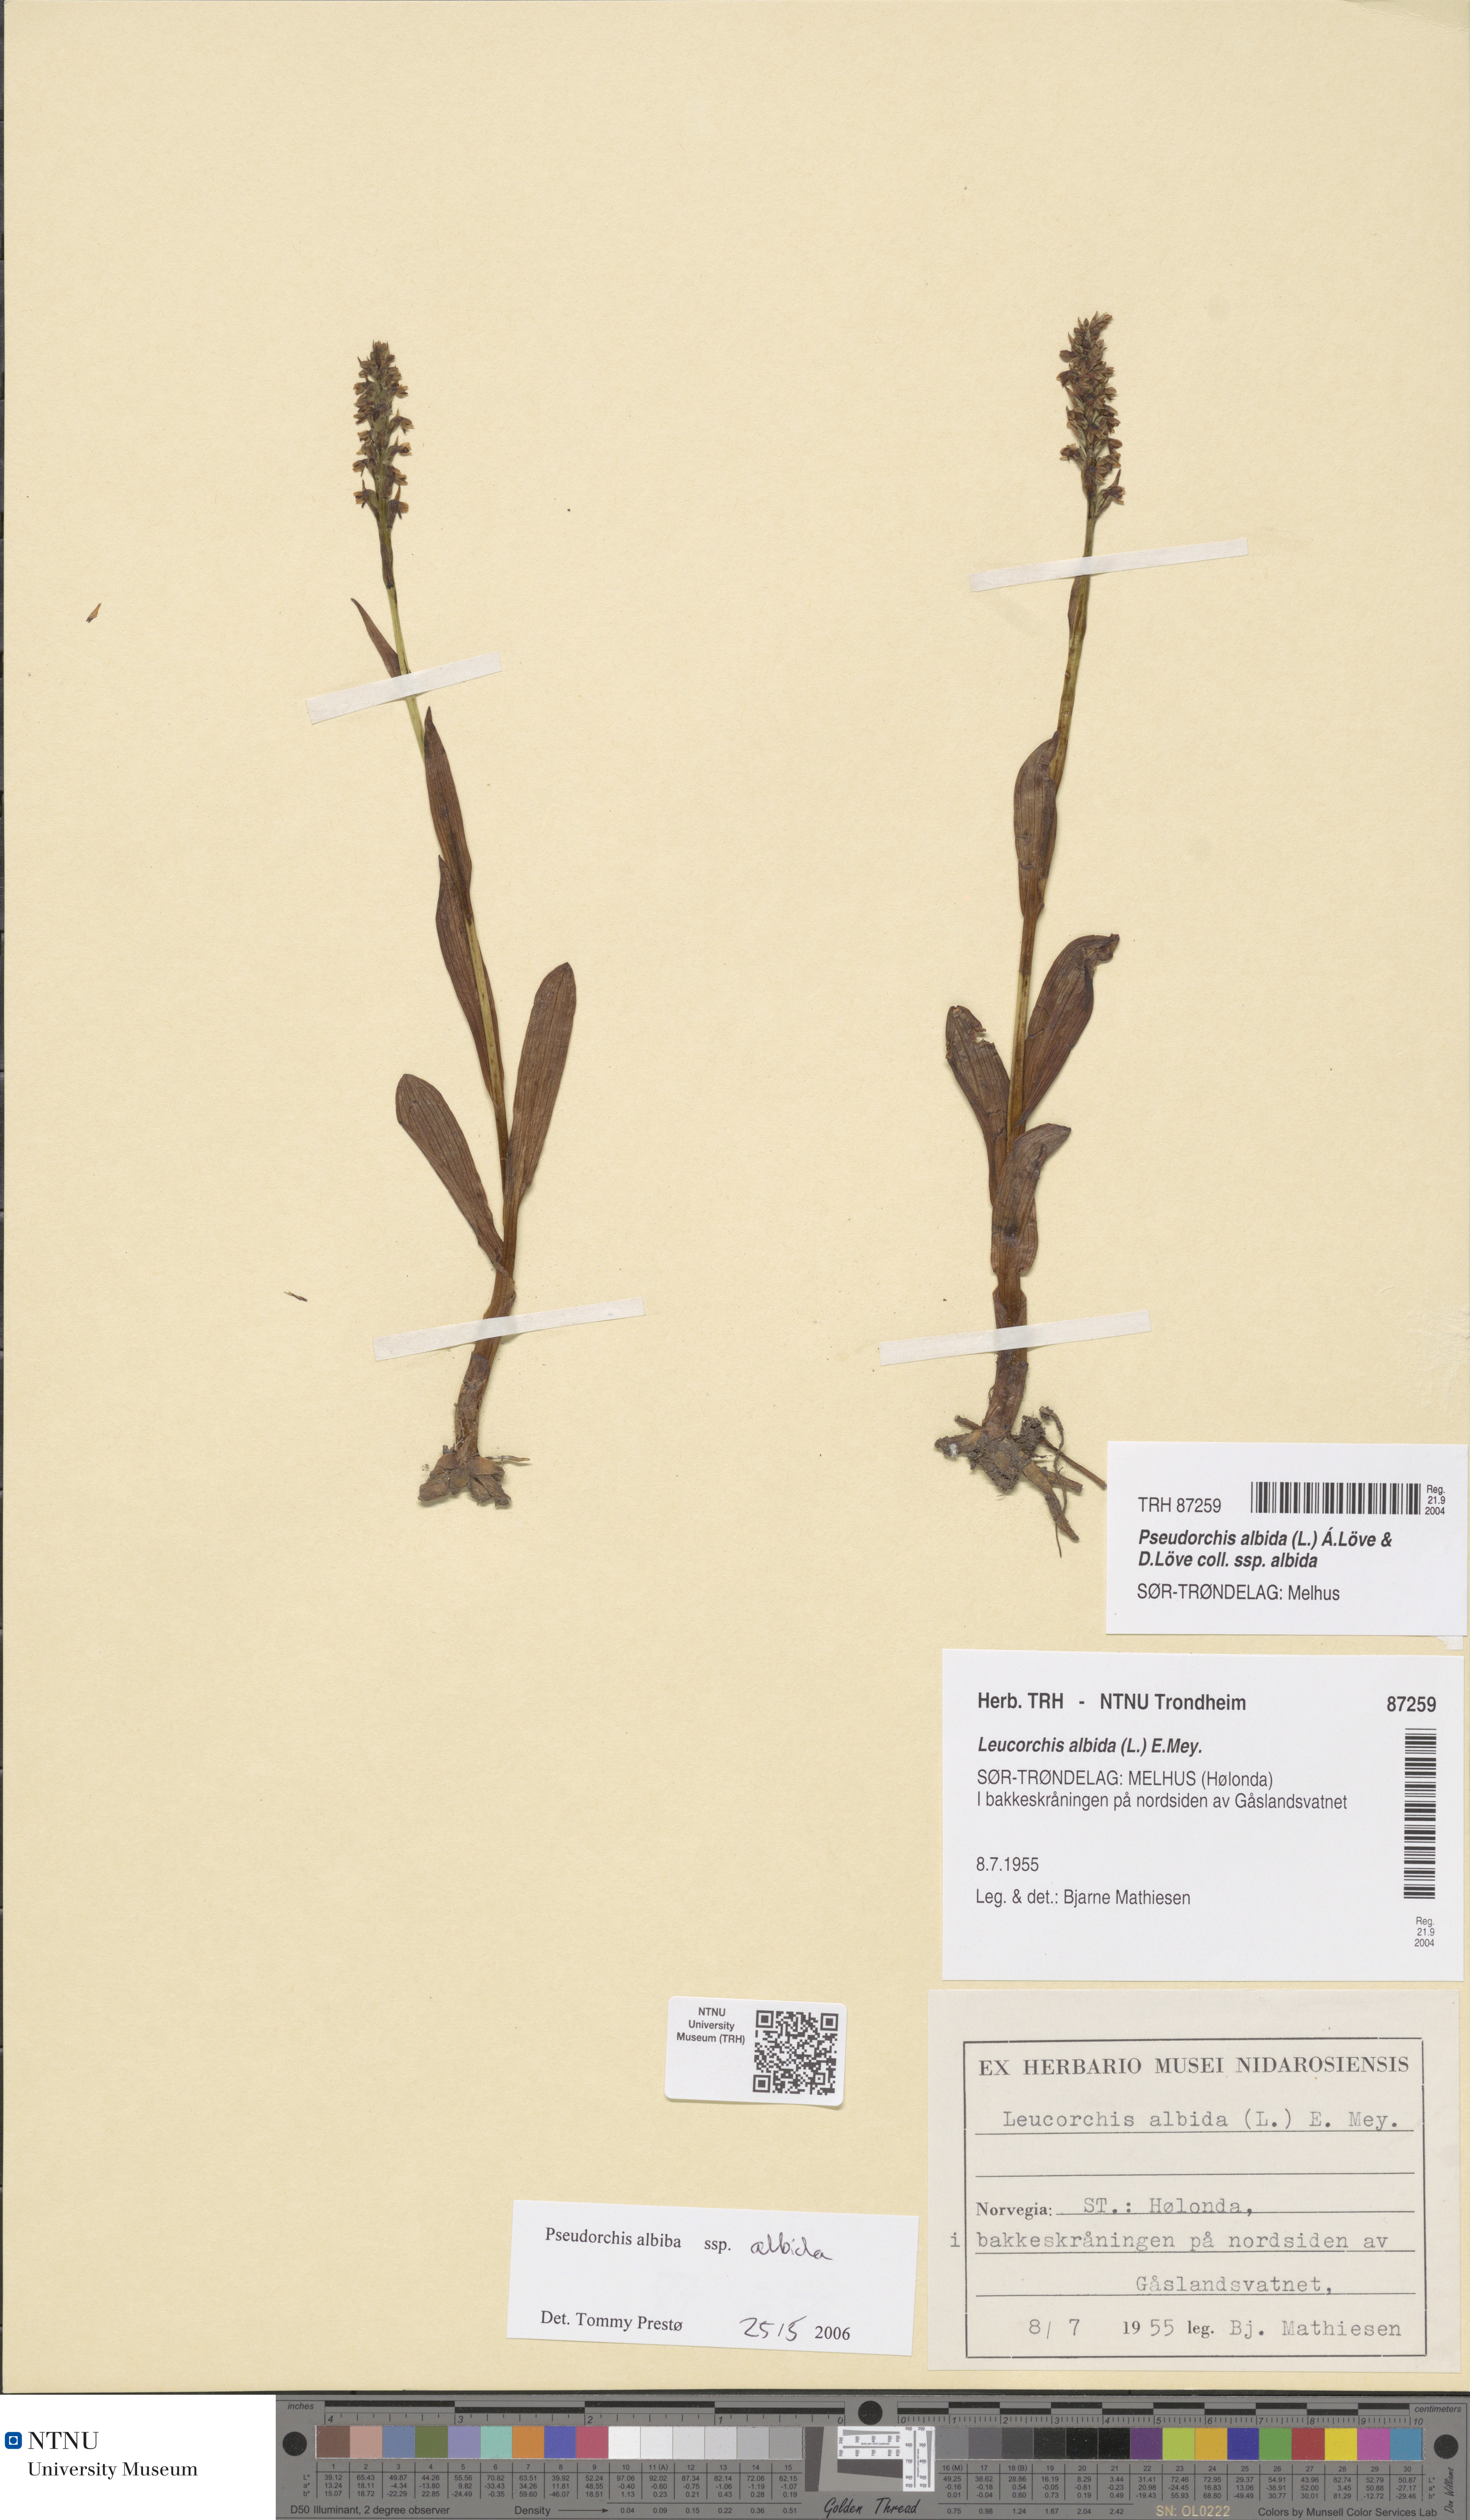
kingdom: Plantae
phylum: Tracheophyta
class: Liliopsida
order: Asparagales
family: Orchidaceae
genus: Pseudorchis
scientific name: Pseudorchis albida
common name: Small-white orchid
